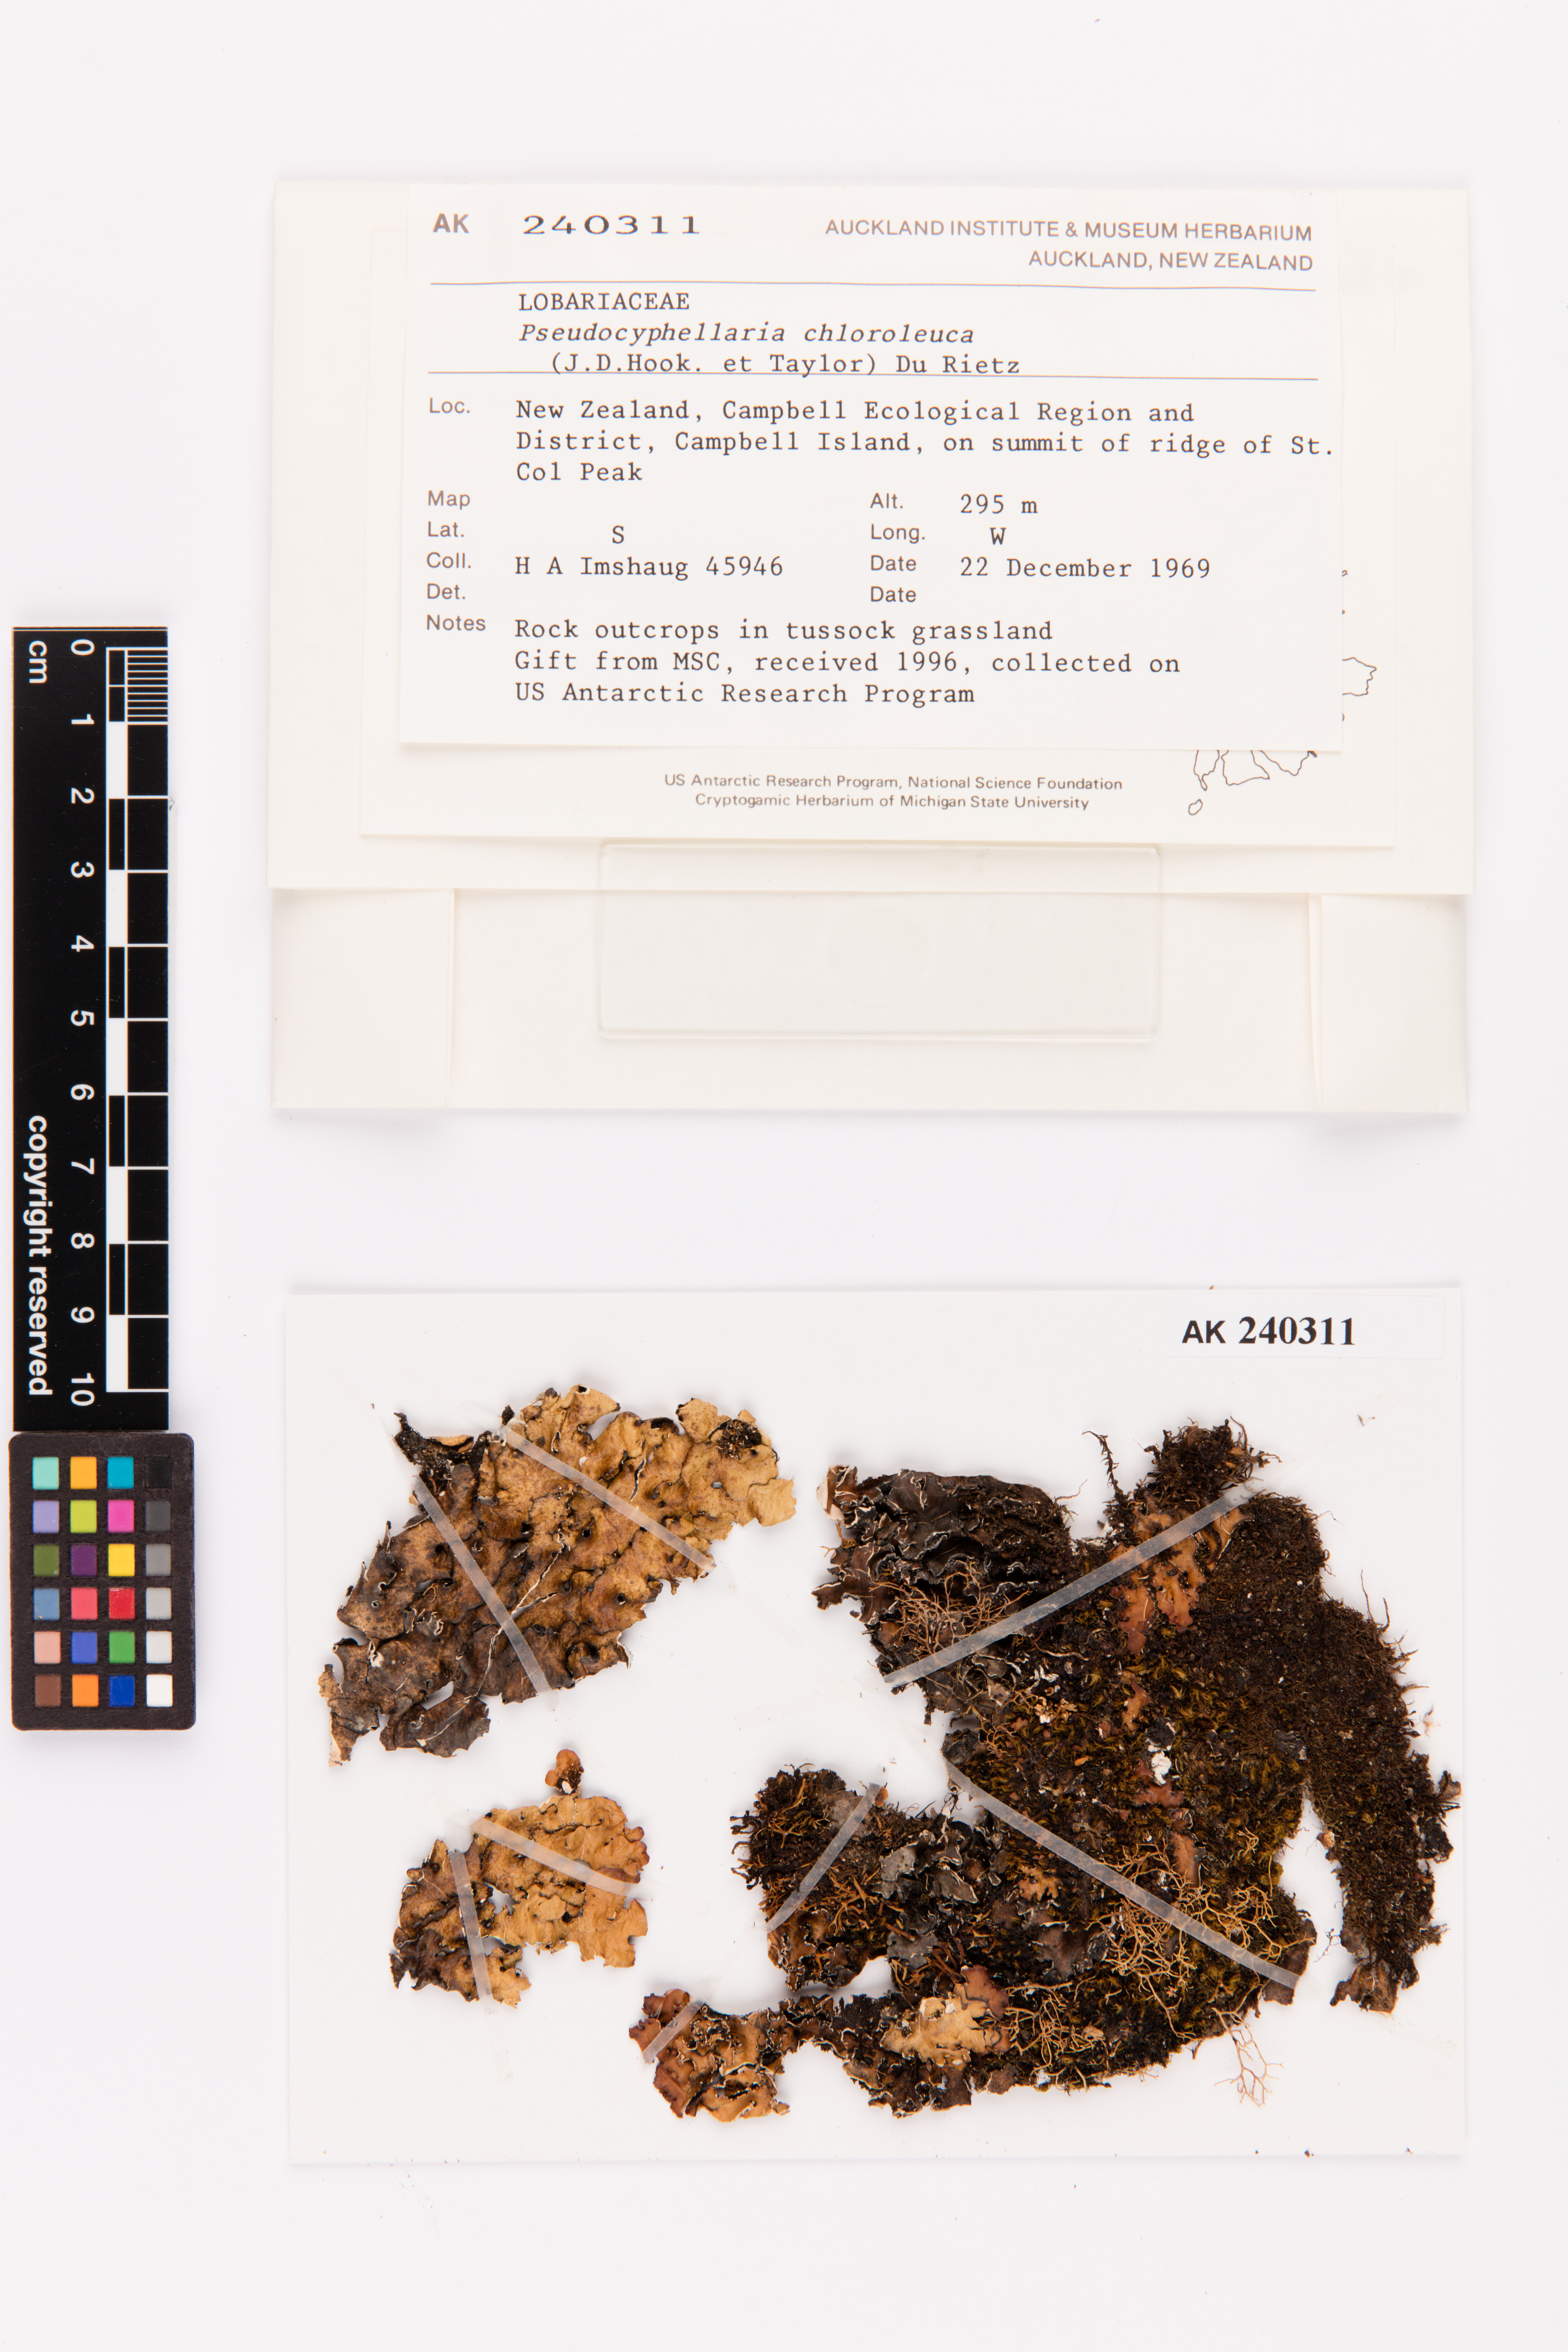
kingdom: Fungi
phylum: Ascomycota
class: Lecanoromycetes
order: Peltigerales
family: Lobariaceae
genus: Pseudocyphellaria
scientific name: Pseudocyphellaria chloroleuca
